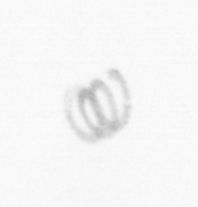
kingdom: Chromista
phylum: Ochrophyta
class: Bacillariophyceae
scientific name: Bacillariophyceae
